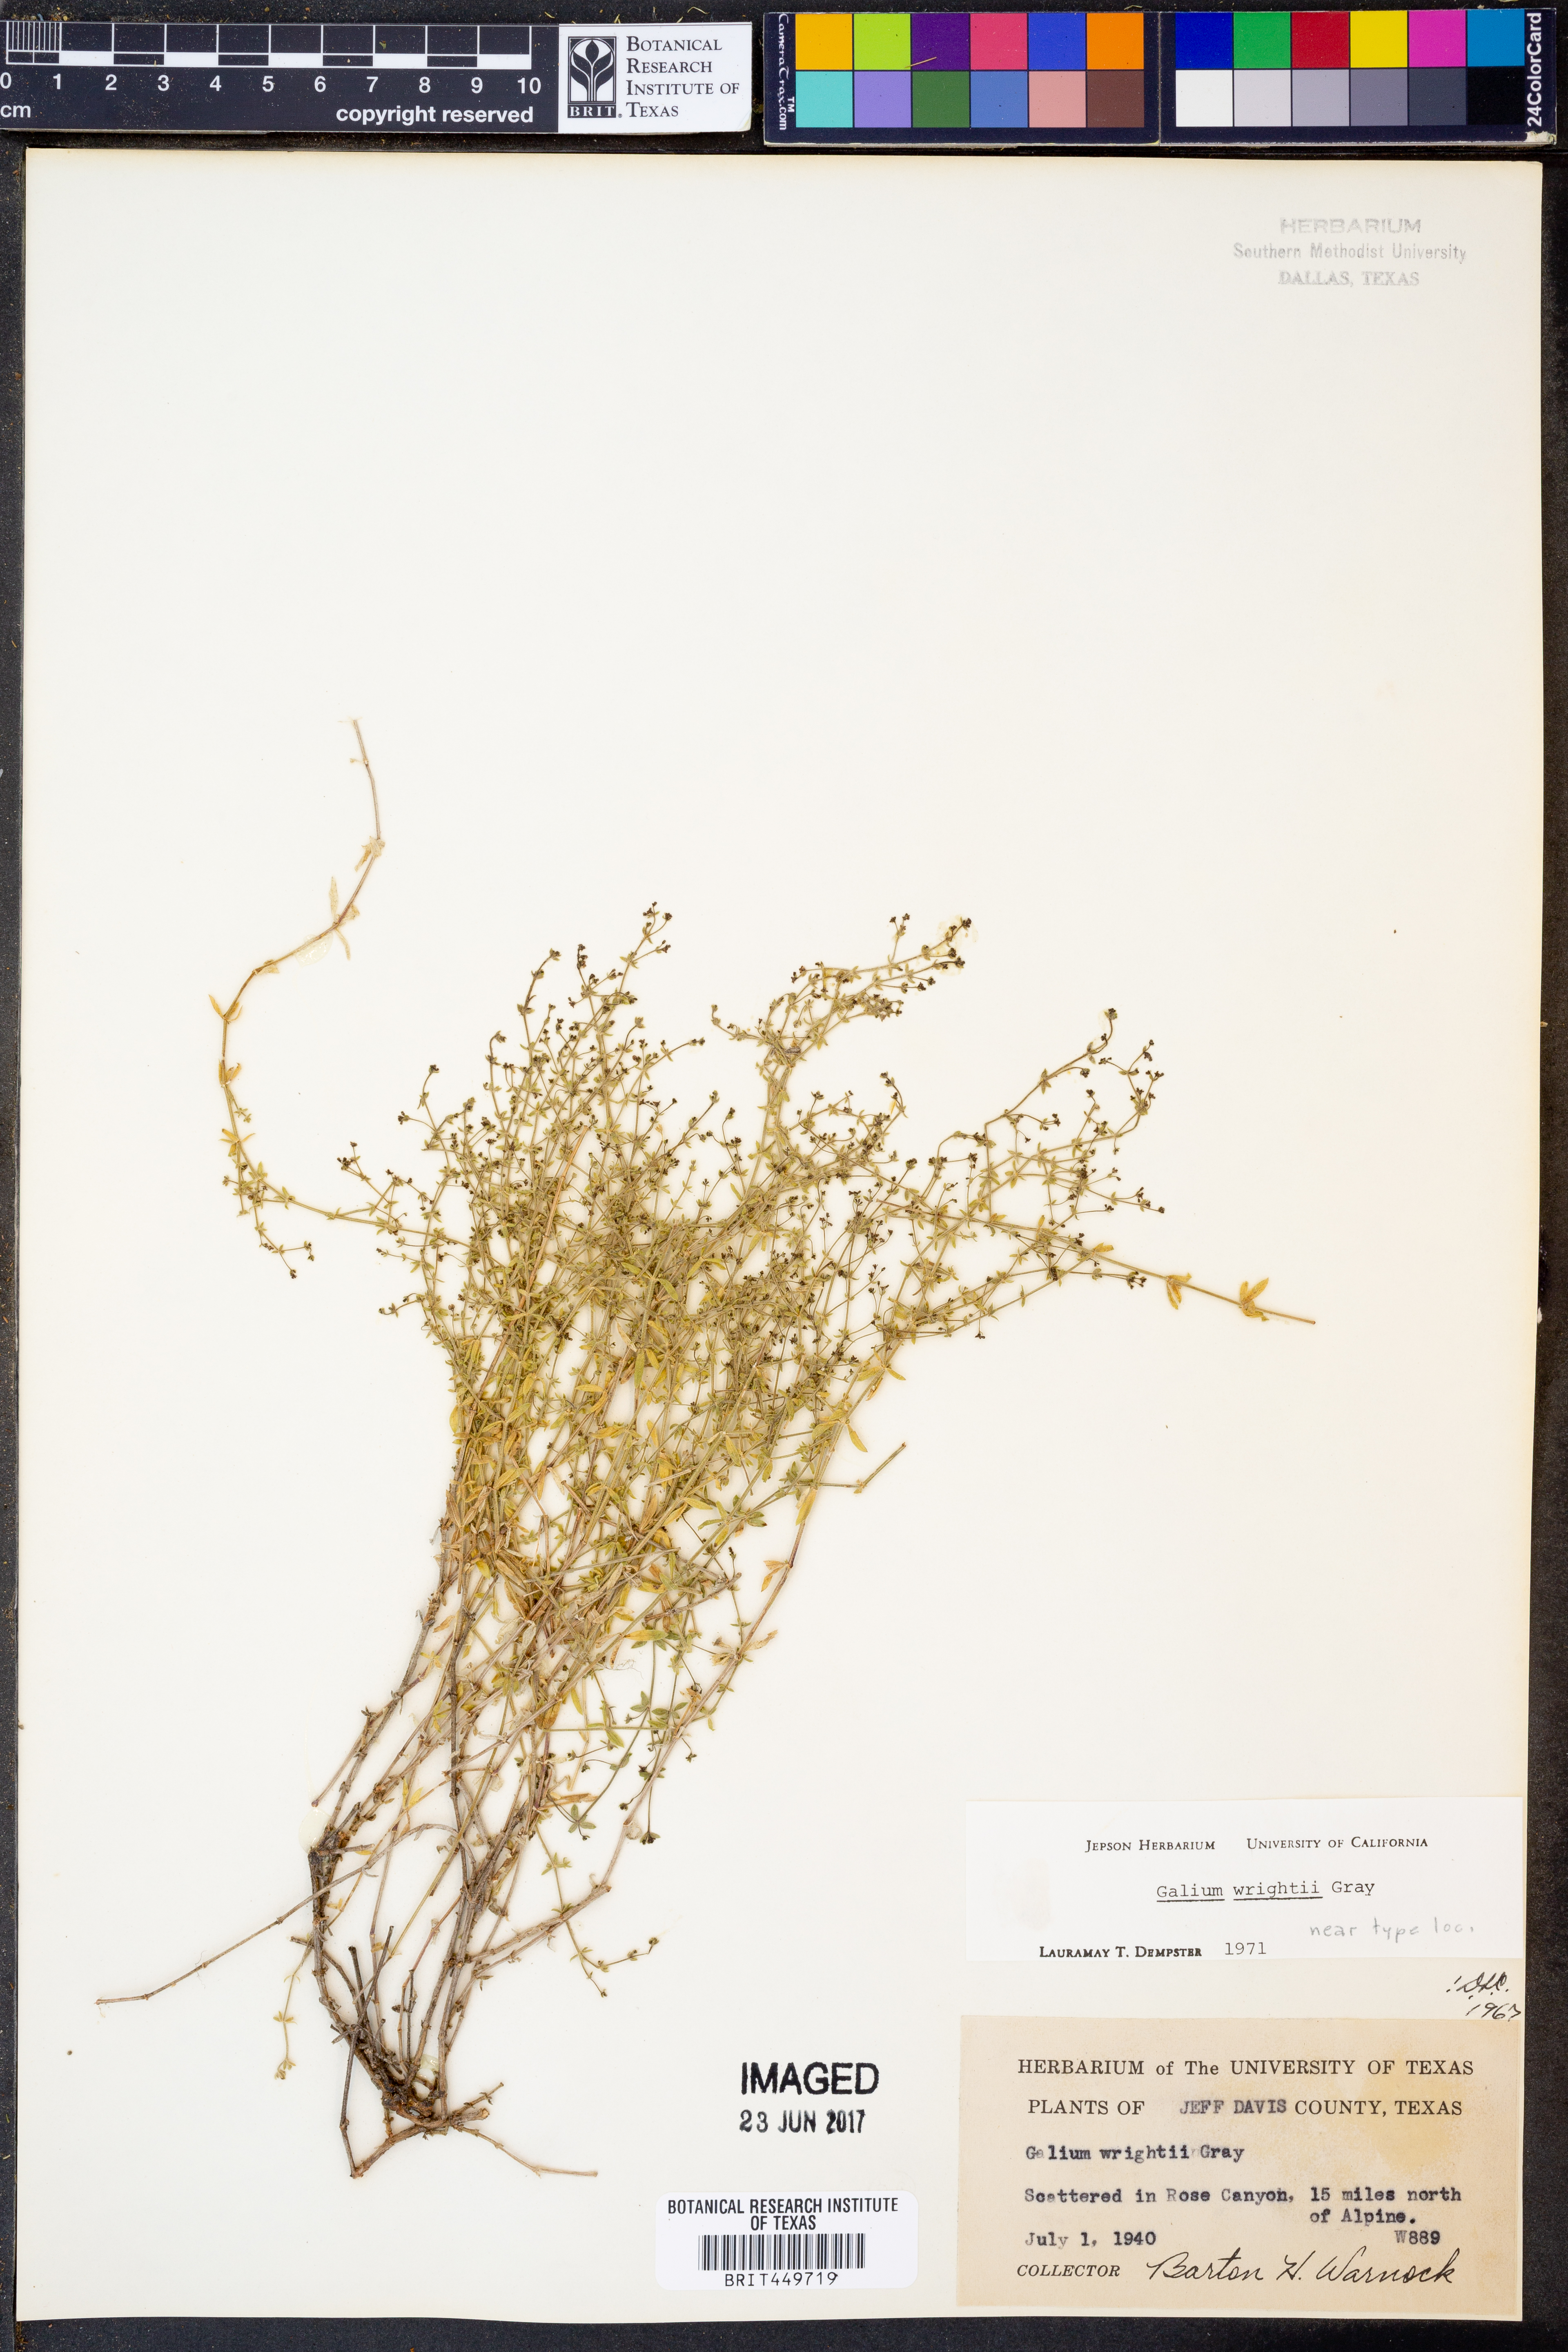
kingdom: Plantae
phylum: Tracheophyta
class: Magnoliopsida
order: Gentianales
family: Rubiaceae
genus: Galium
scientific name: Galium wrightii
